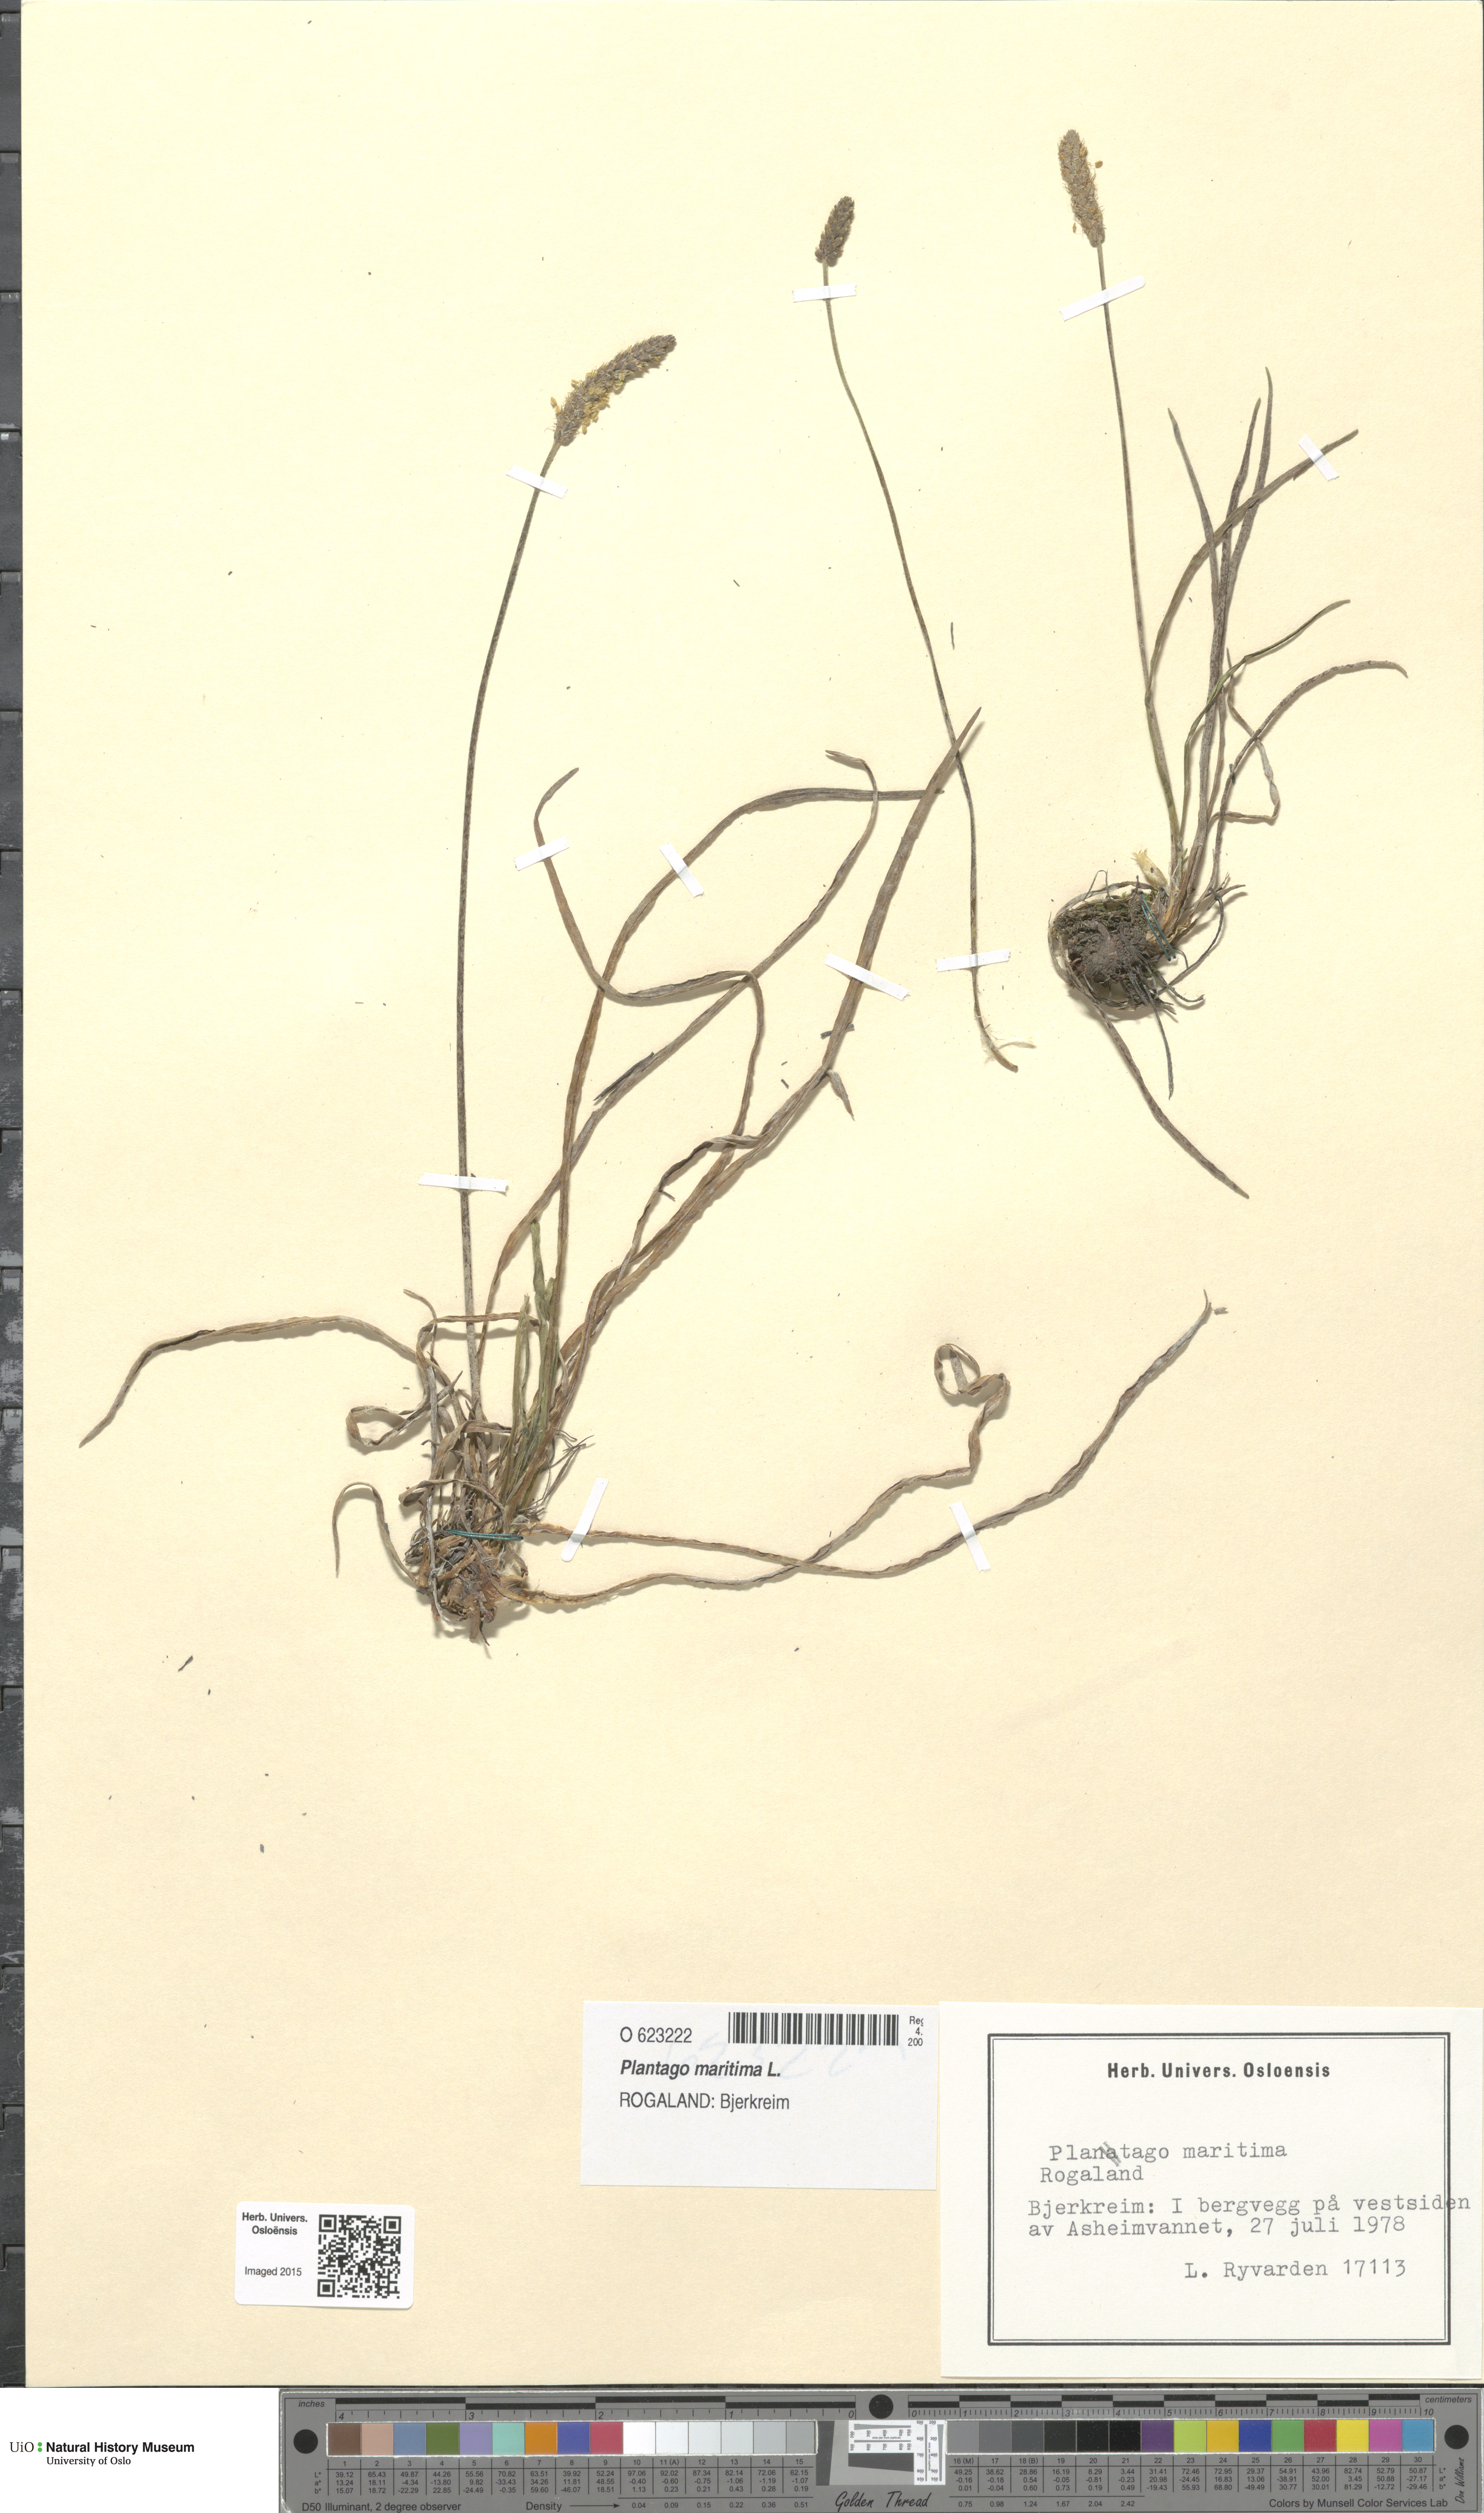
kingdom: Plantae
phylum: Tracheophyta
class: Magnoliopsida
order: Lamiales
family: Plantaginaceae
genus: Plantago
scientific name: Plantago maritima
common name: Sea plantain
